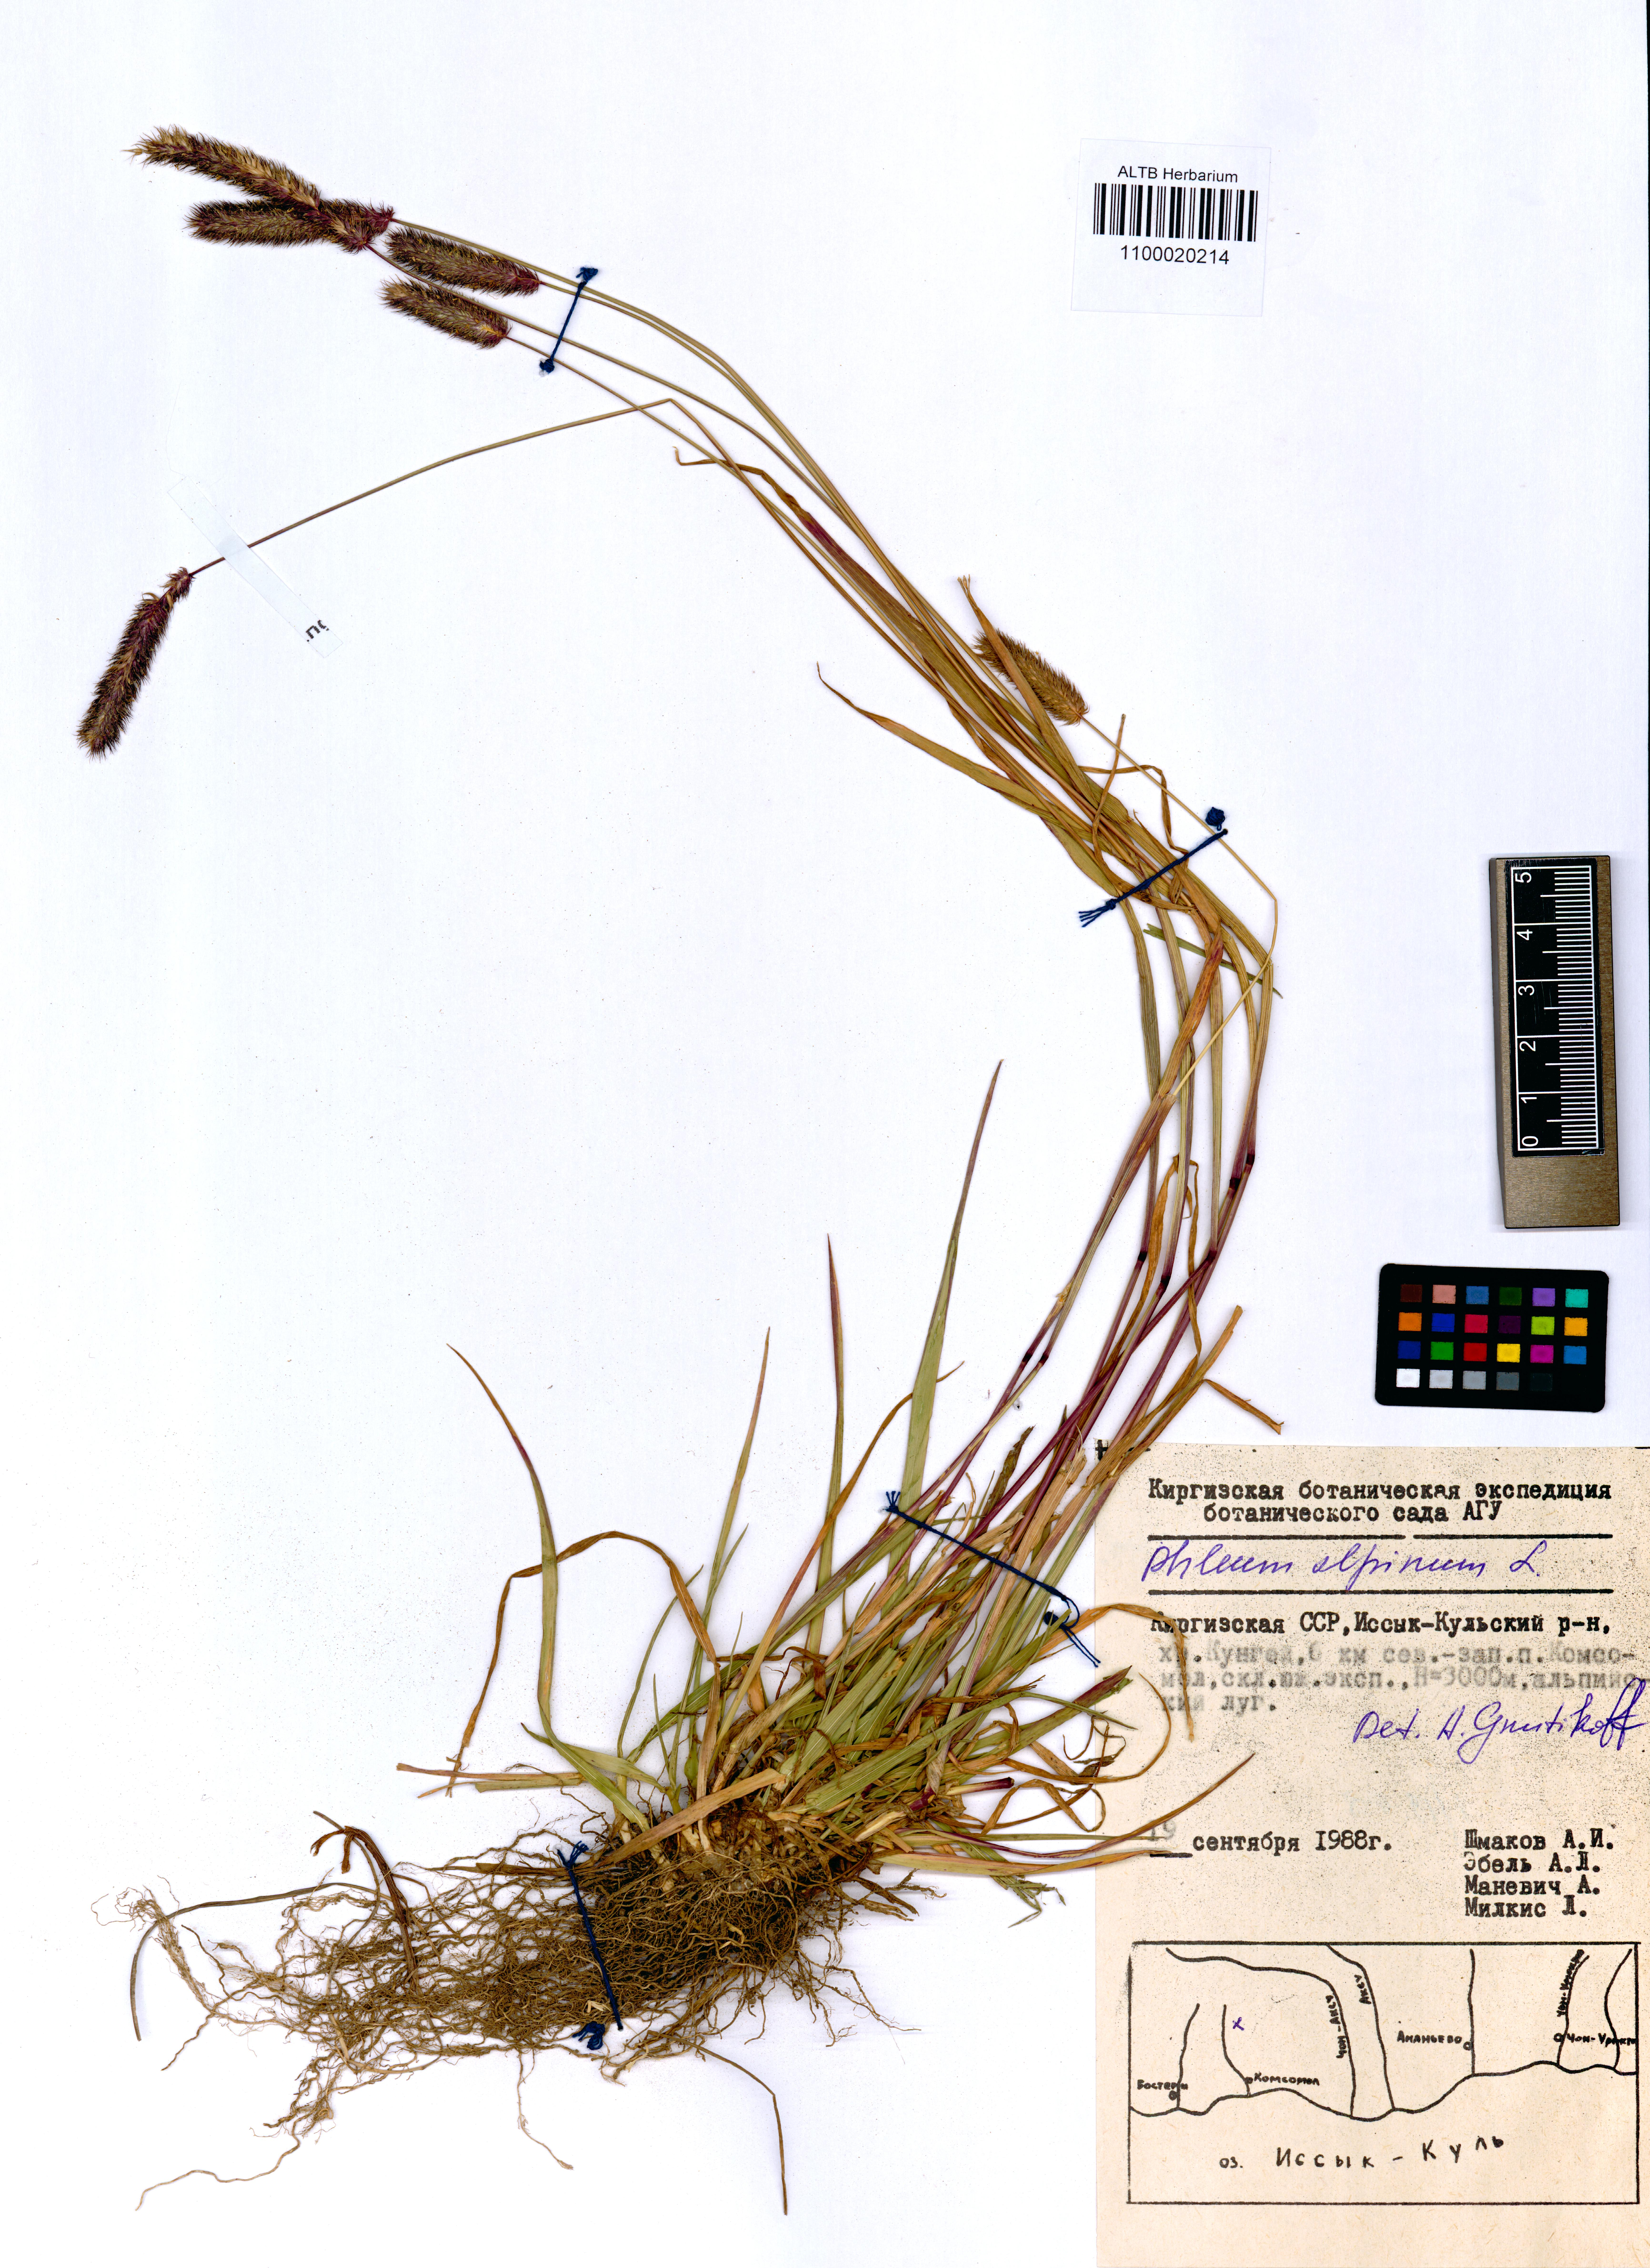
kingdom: Plantae
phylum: Tracheophyta
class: Liliopsida
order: Poales
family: Poaceae
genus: Phleum
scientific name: Phleum alpinum
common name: Alpine cat's-tail
